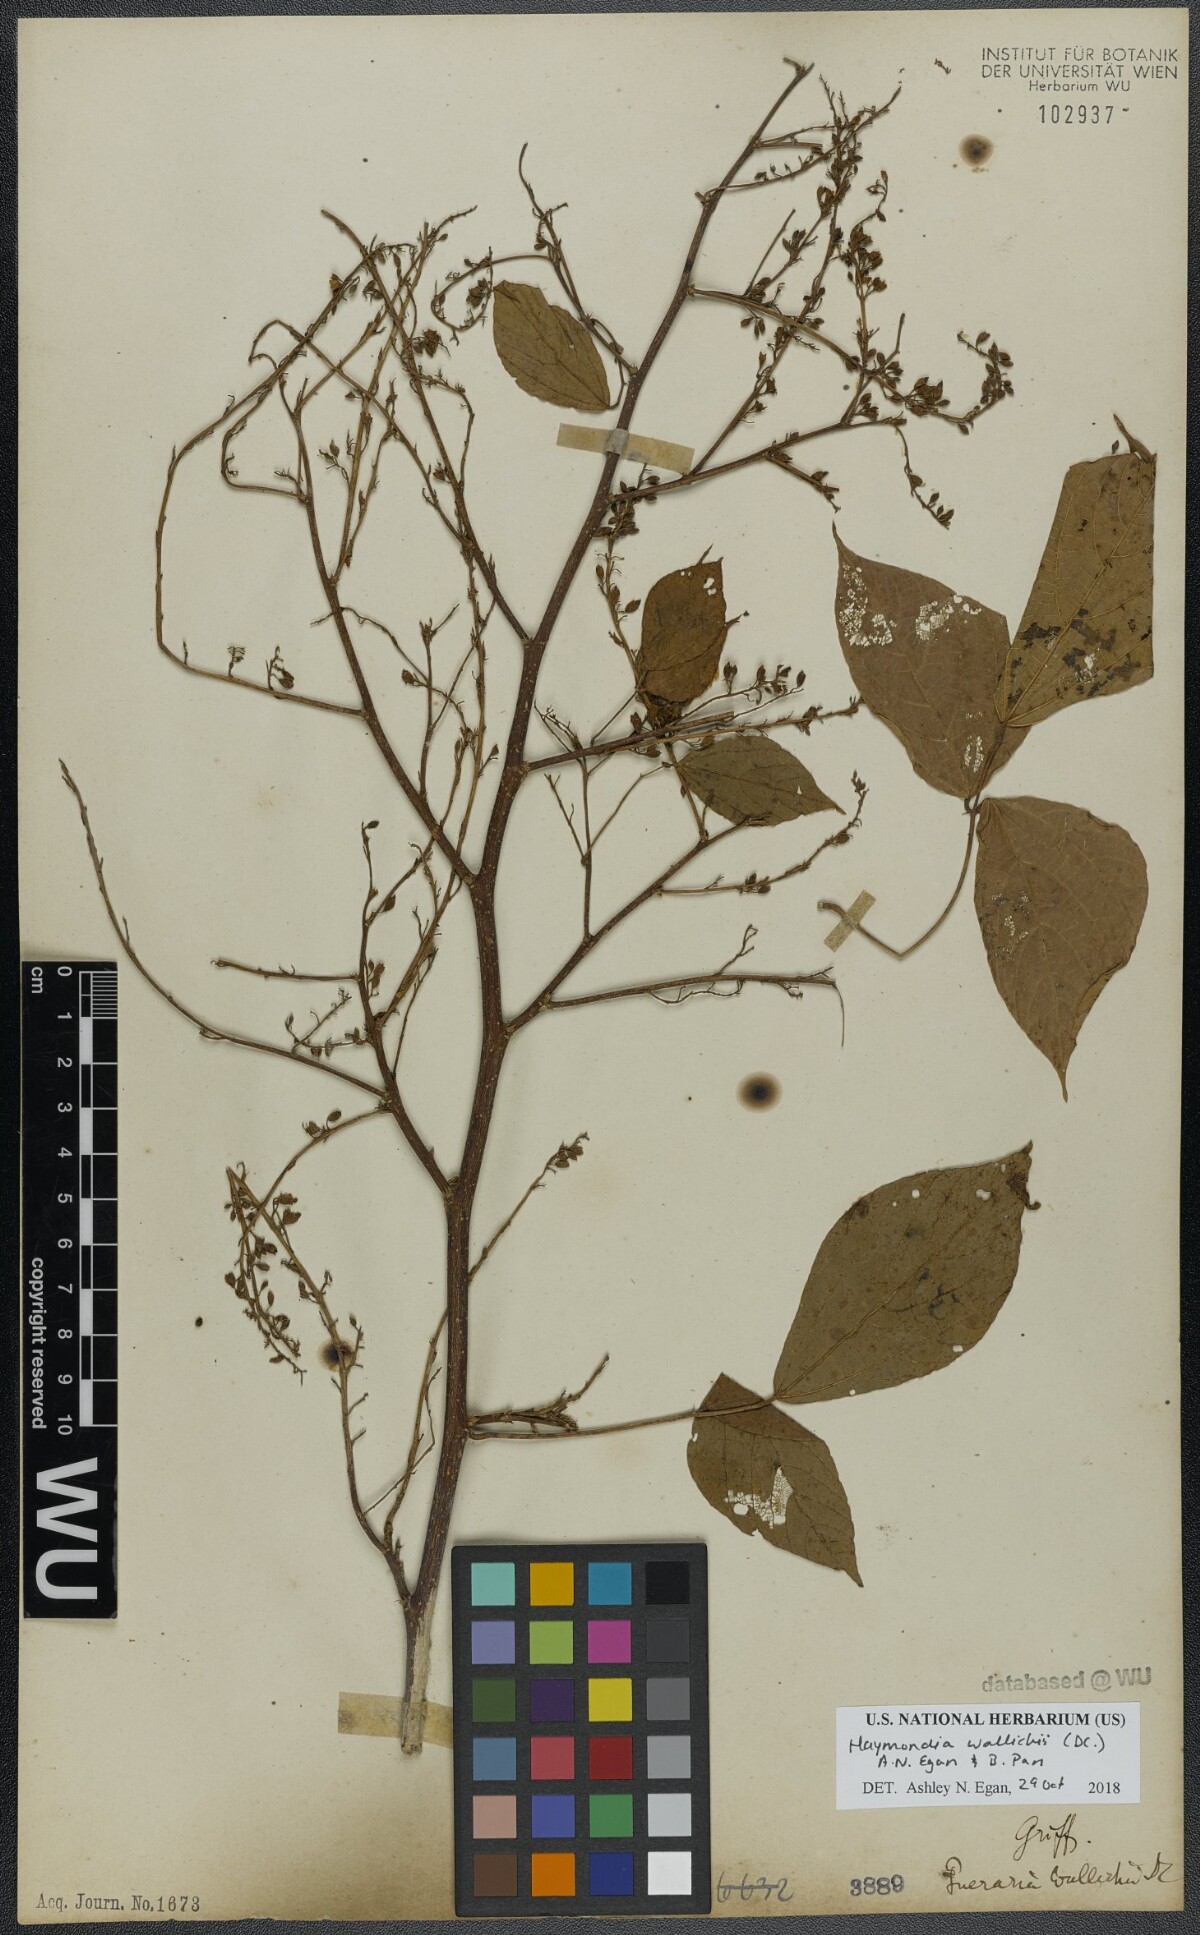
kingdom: Plantae
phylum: Tracheophyta
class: Magnoliopsida
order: Fabales
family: Fabaceae
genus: Haymondia
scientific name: Haymondia wallichii
